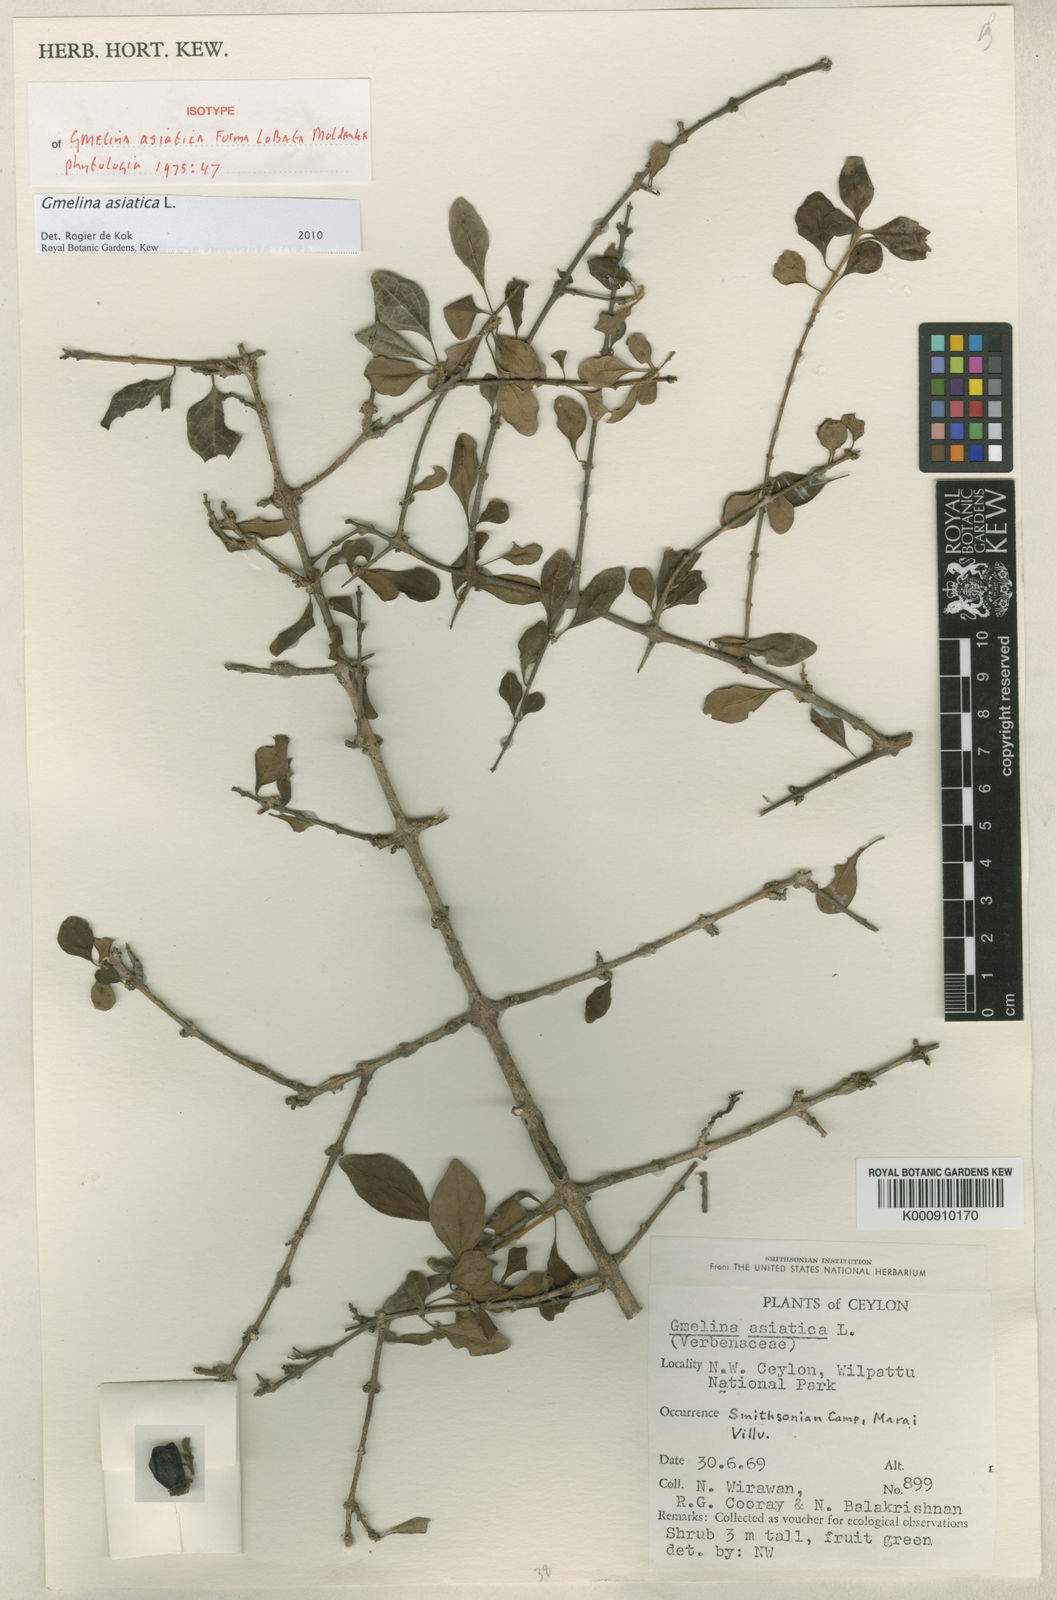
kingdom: Plantae
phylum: Tracheophyta
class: Magnoliopsida
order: Lamiales
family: Lamiaceae
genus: Gmelina
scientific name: Gmelina asiatica
